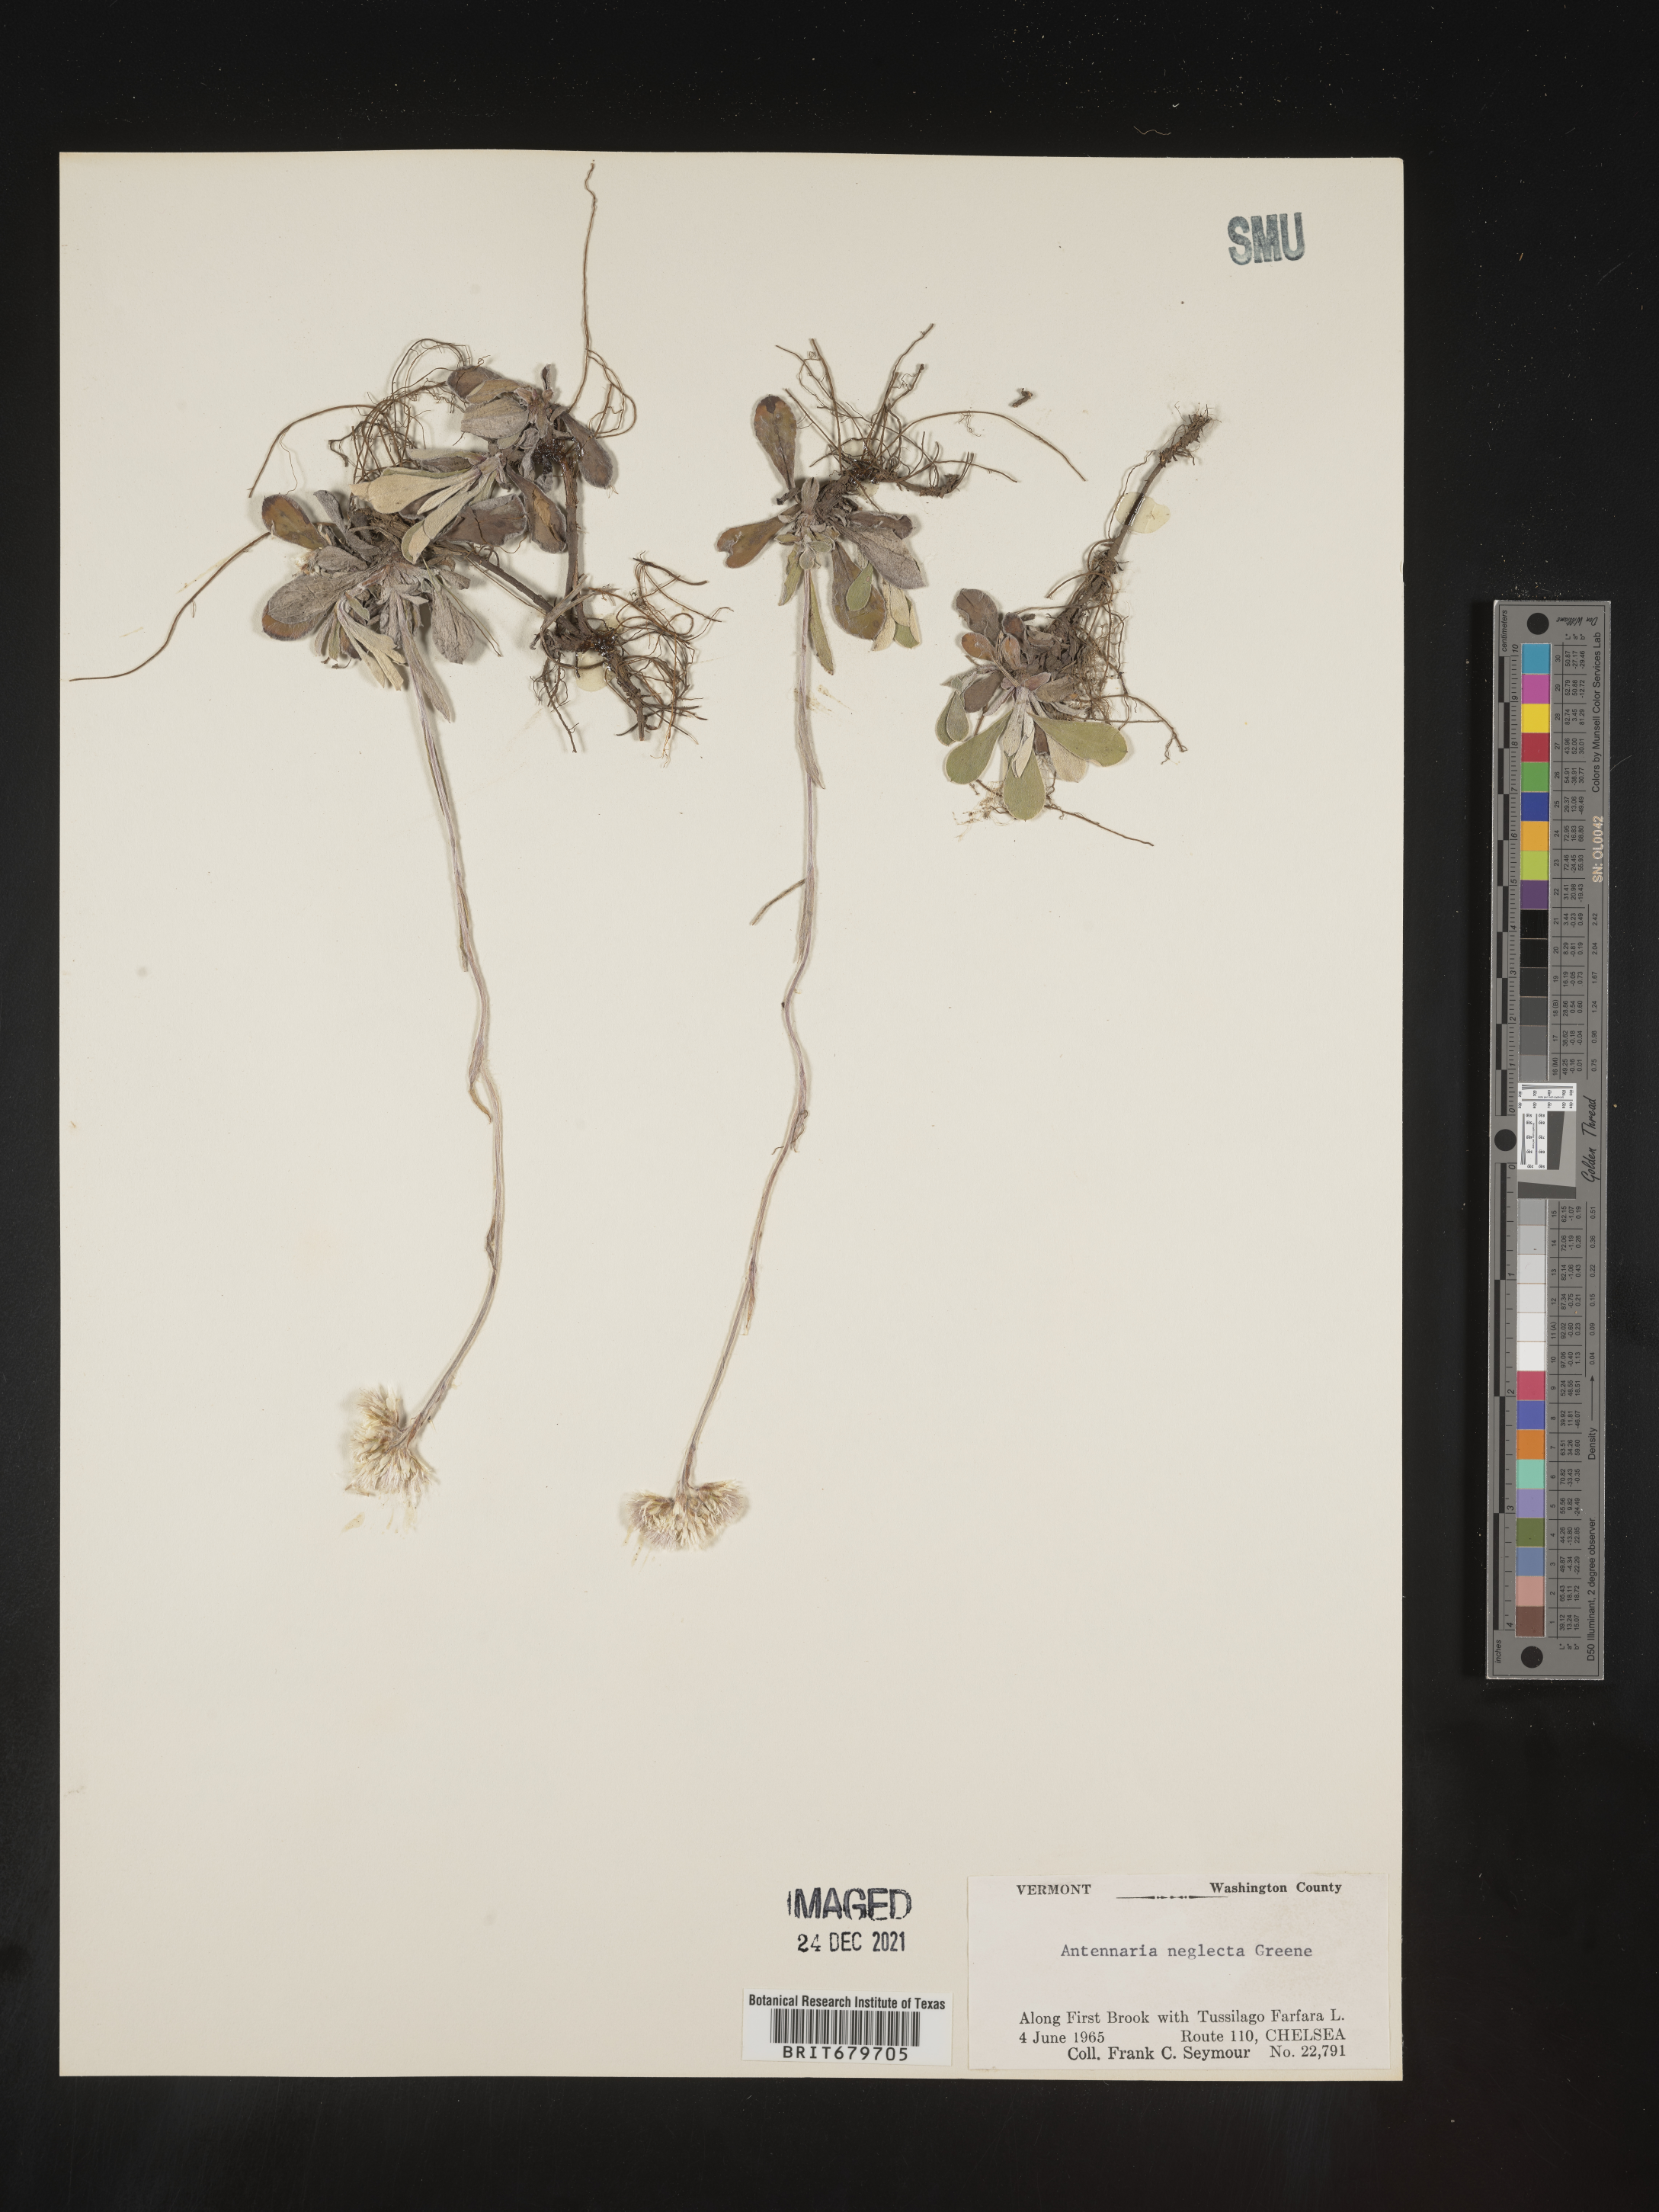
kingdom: Plantae
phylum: Tracheophyta
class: Magnoliopsida
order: Asterales
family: Asteraceae
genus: Antennaria
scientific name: Antennaria neglecta
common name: Field pussytoes
